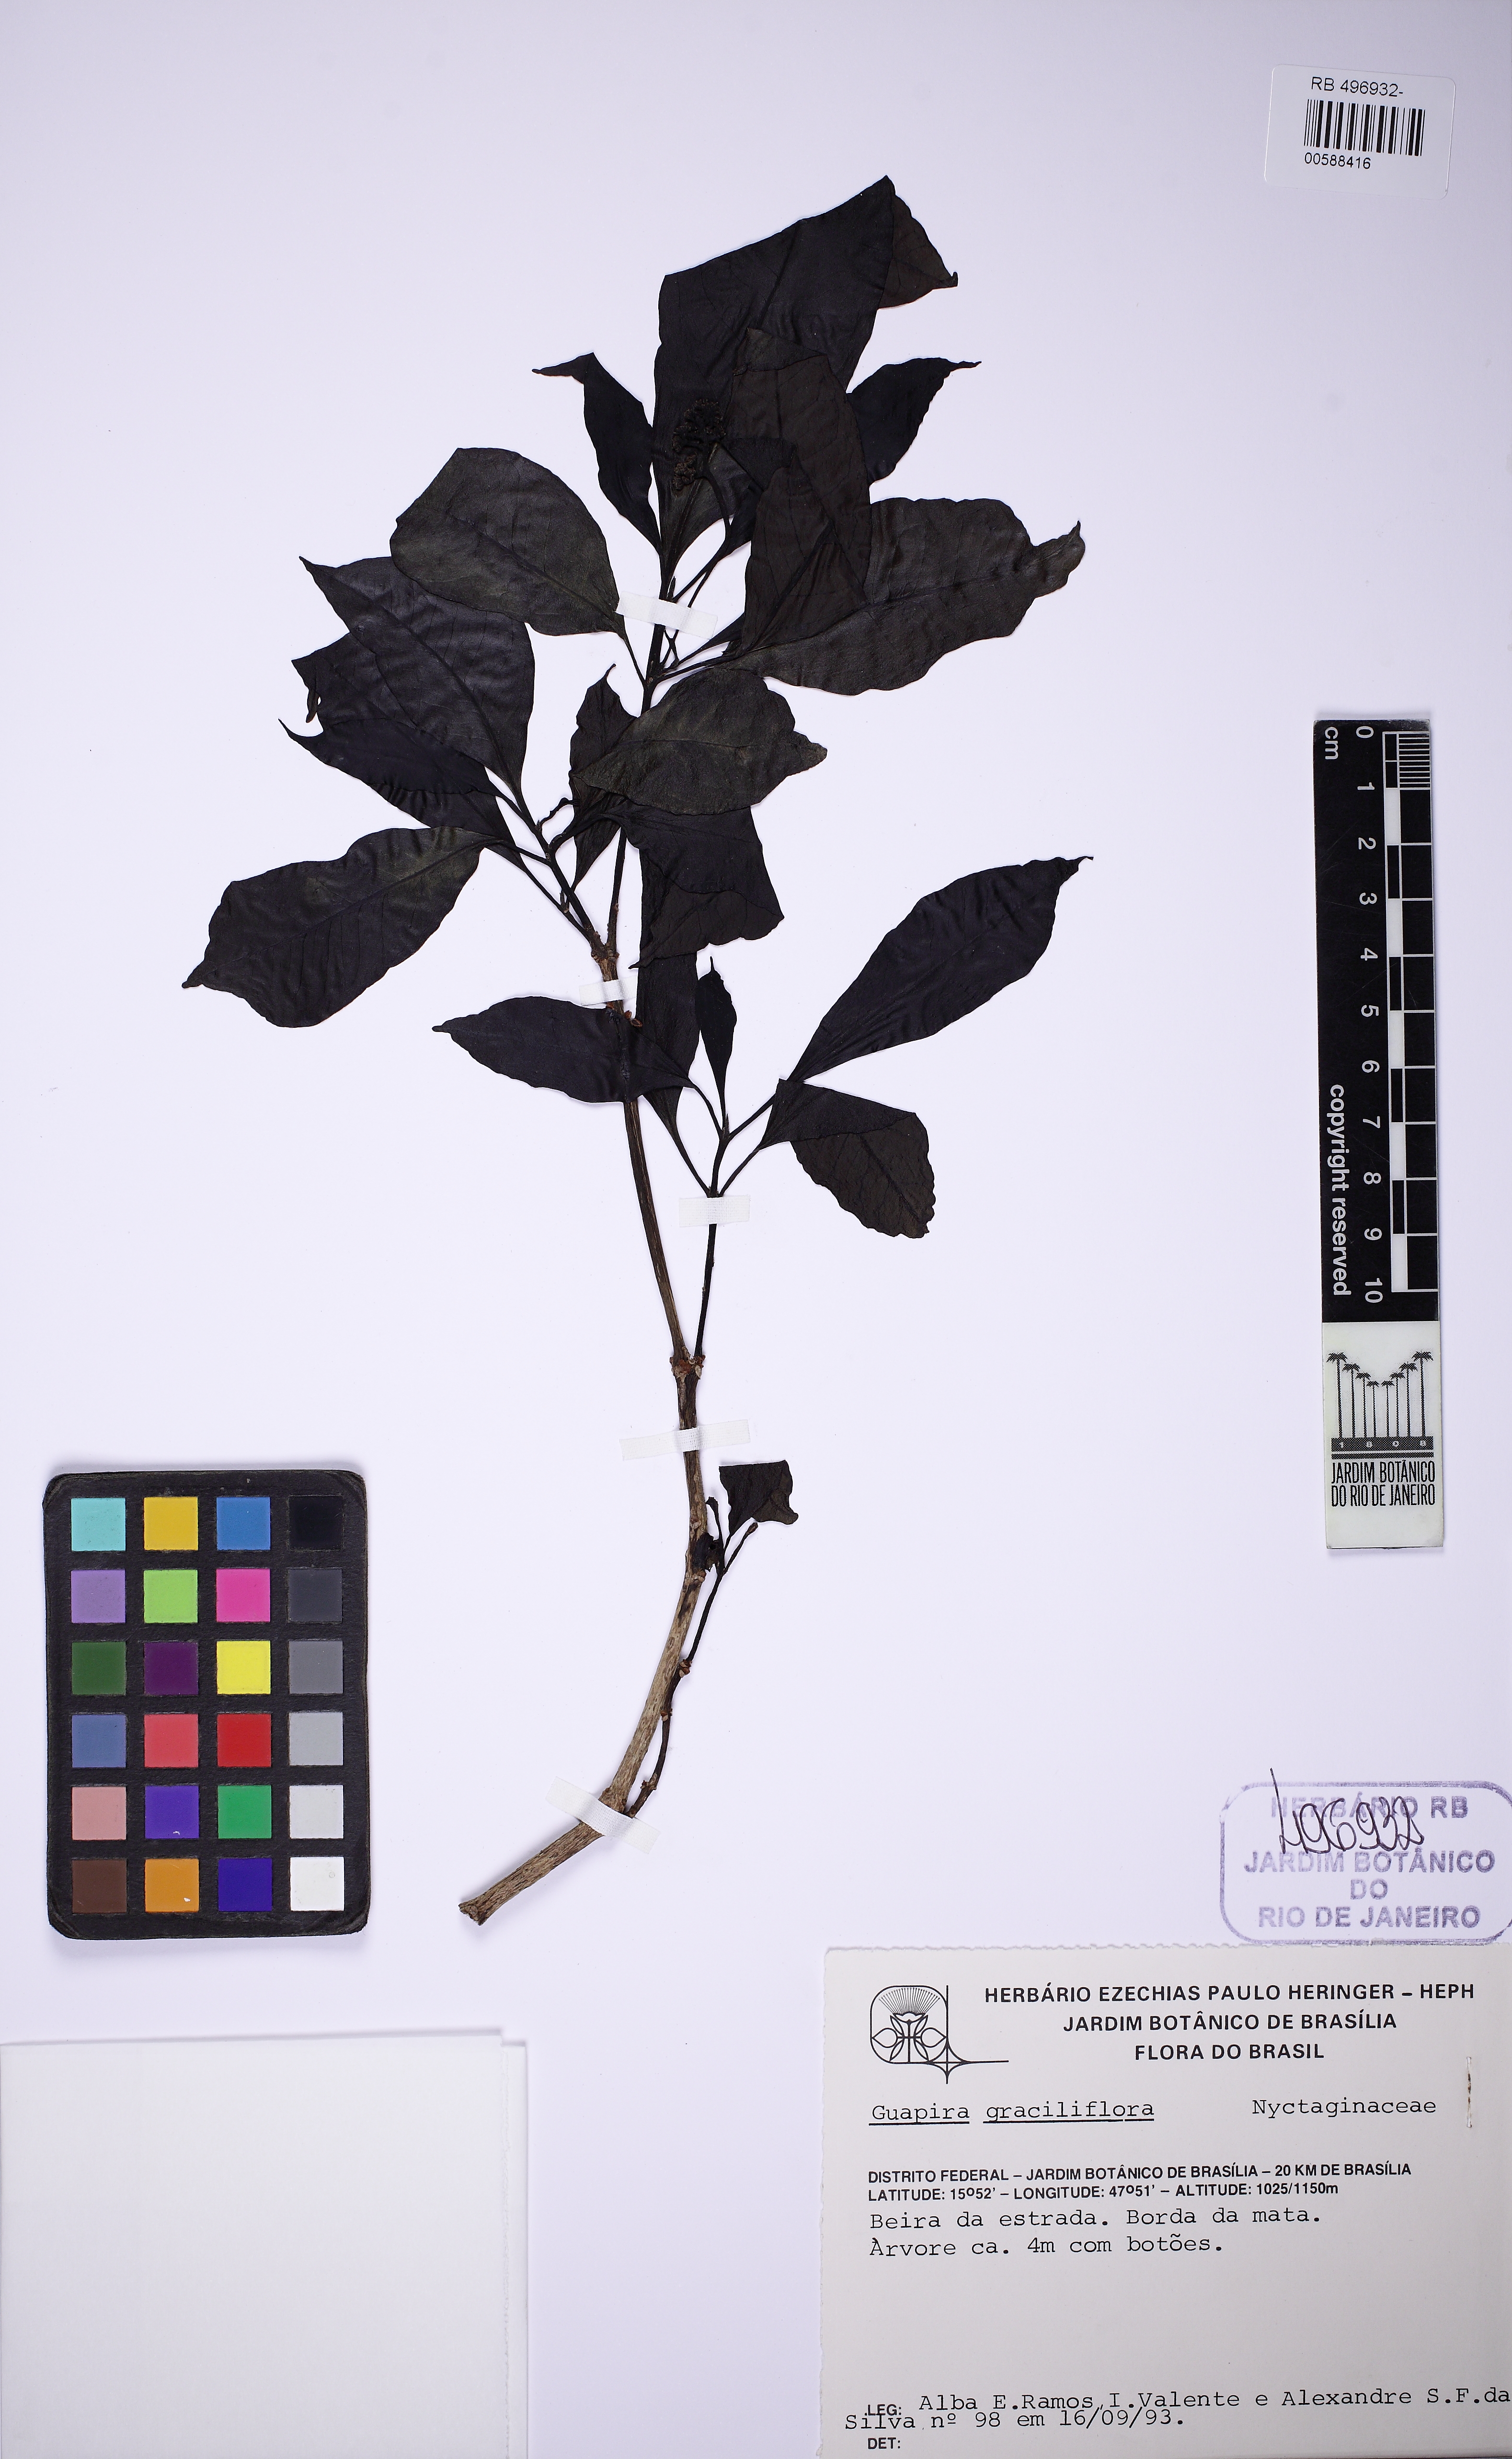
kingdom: Plantae
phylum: Tracheophyta
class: Magnoliopsida
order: Caryophyllales
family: Nyctaginaceae
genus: Guapira
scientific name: Guapira graciliflora
